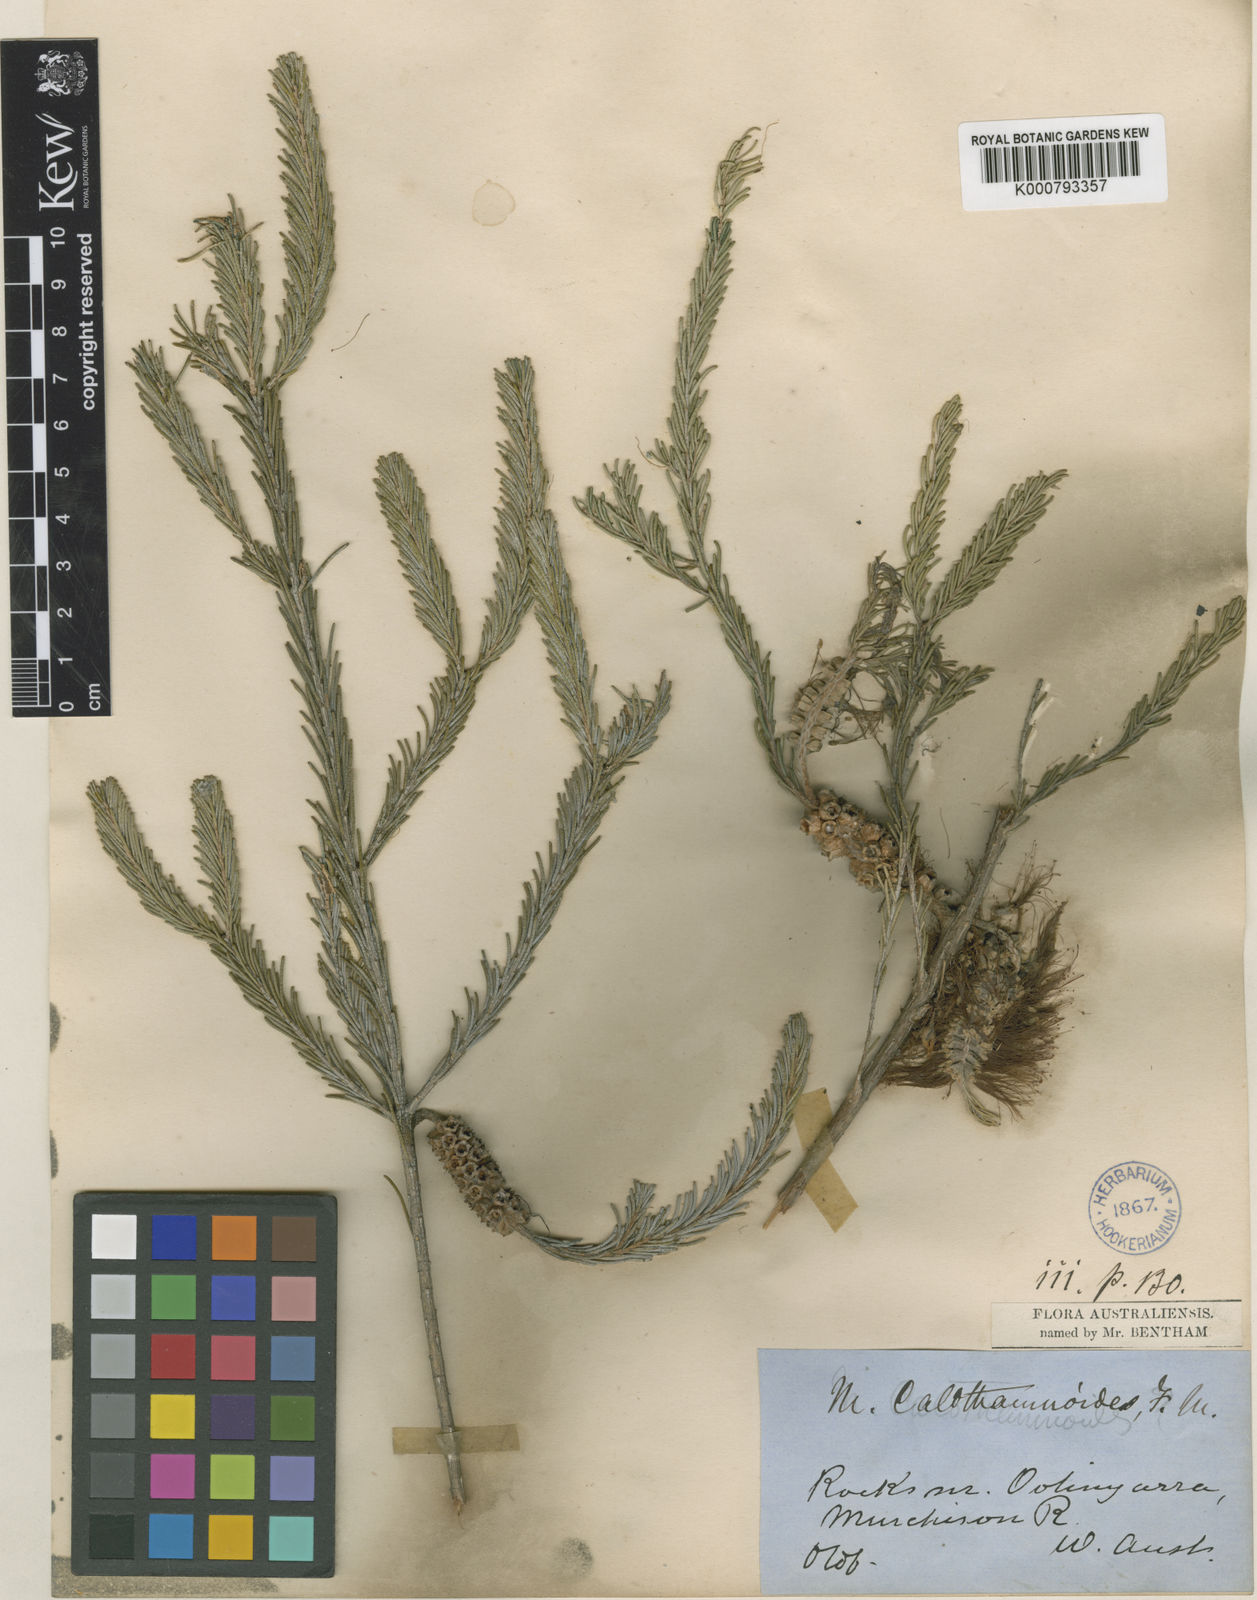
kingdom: Plantae
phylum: Tracheophyta
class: Magnoliopsida
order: Myrtales
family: Myrtaceae
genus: Melaleuca
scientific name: Melaleuca calothamnoides
